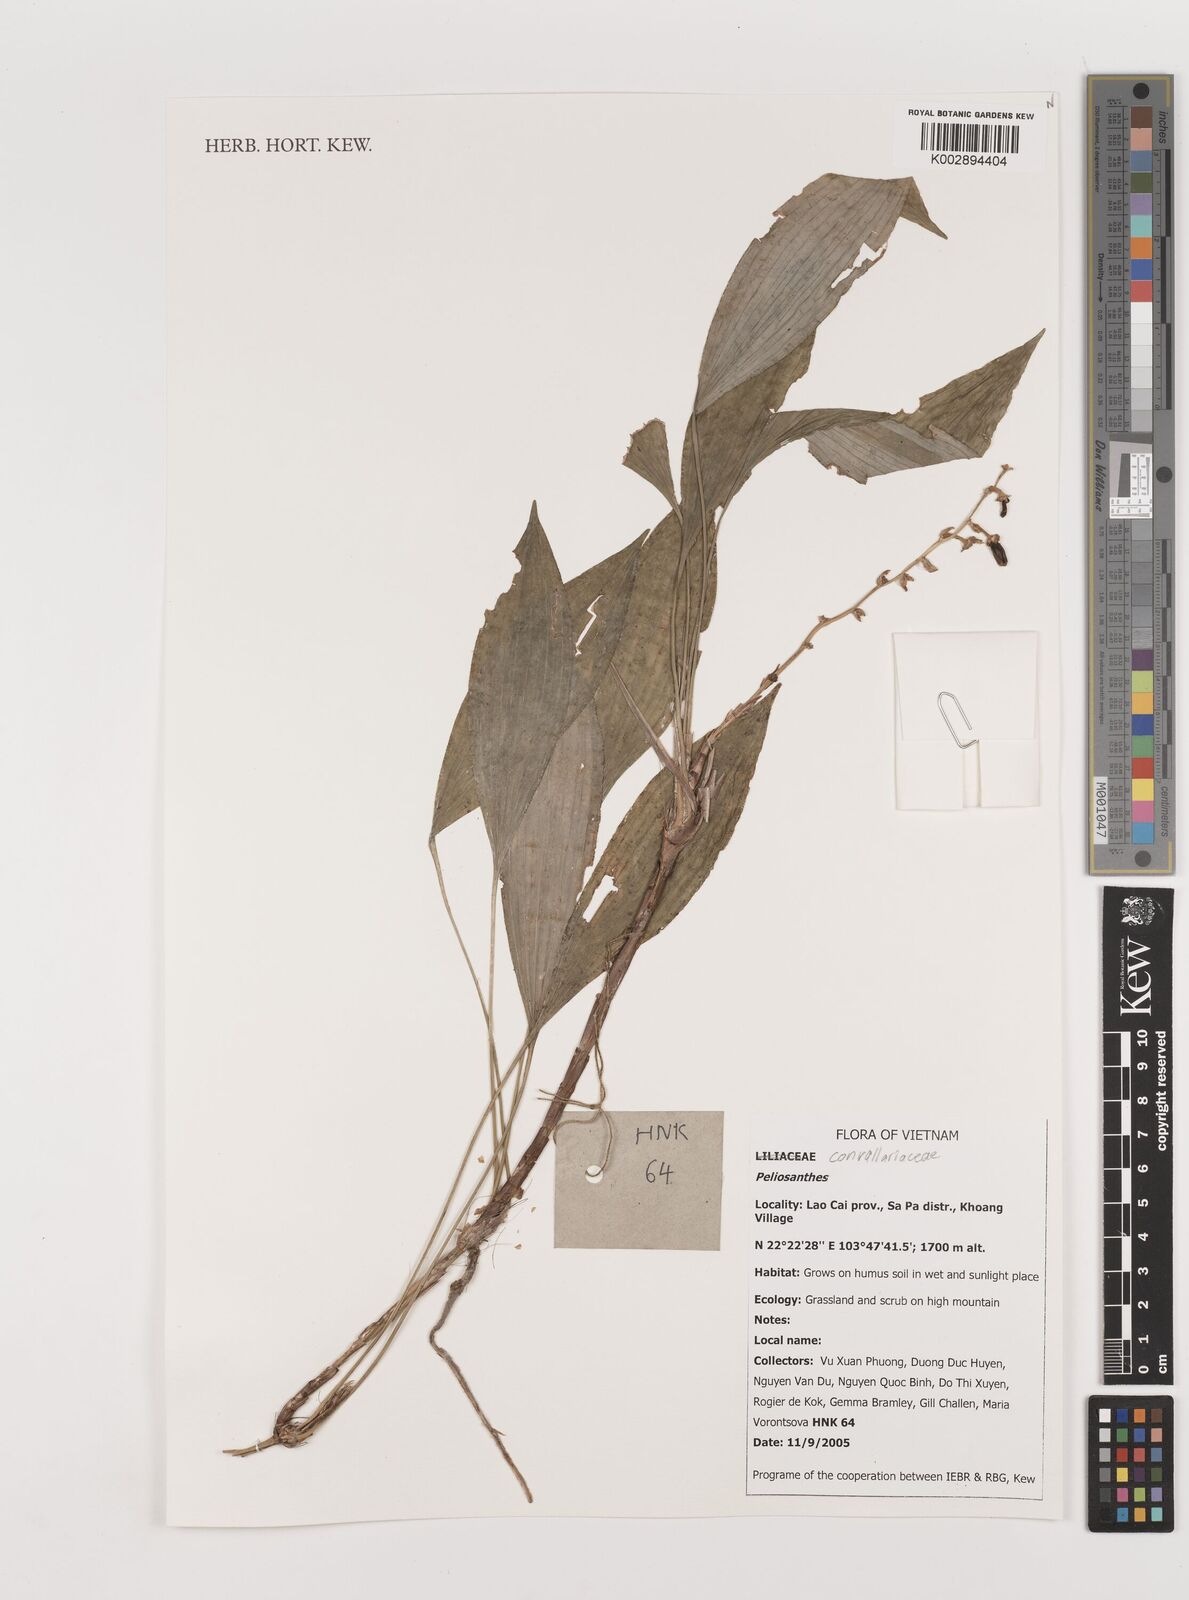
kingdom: Plantae
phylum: Tracheophyta
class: Liliopsida
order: Asparagales
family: Asparagaceae
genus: Peliosanthes
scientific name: Peliosanthes
